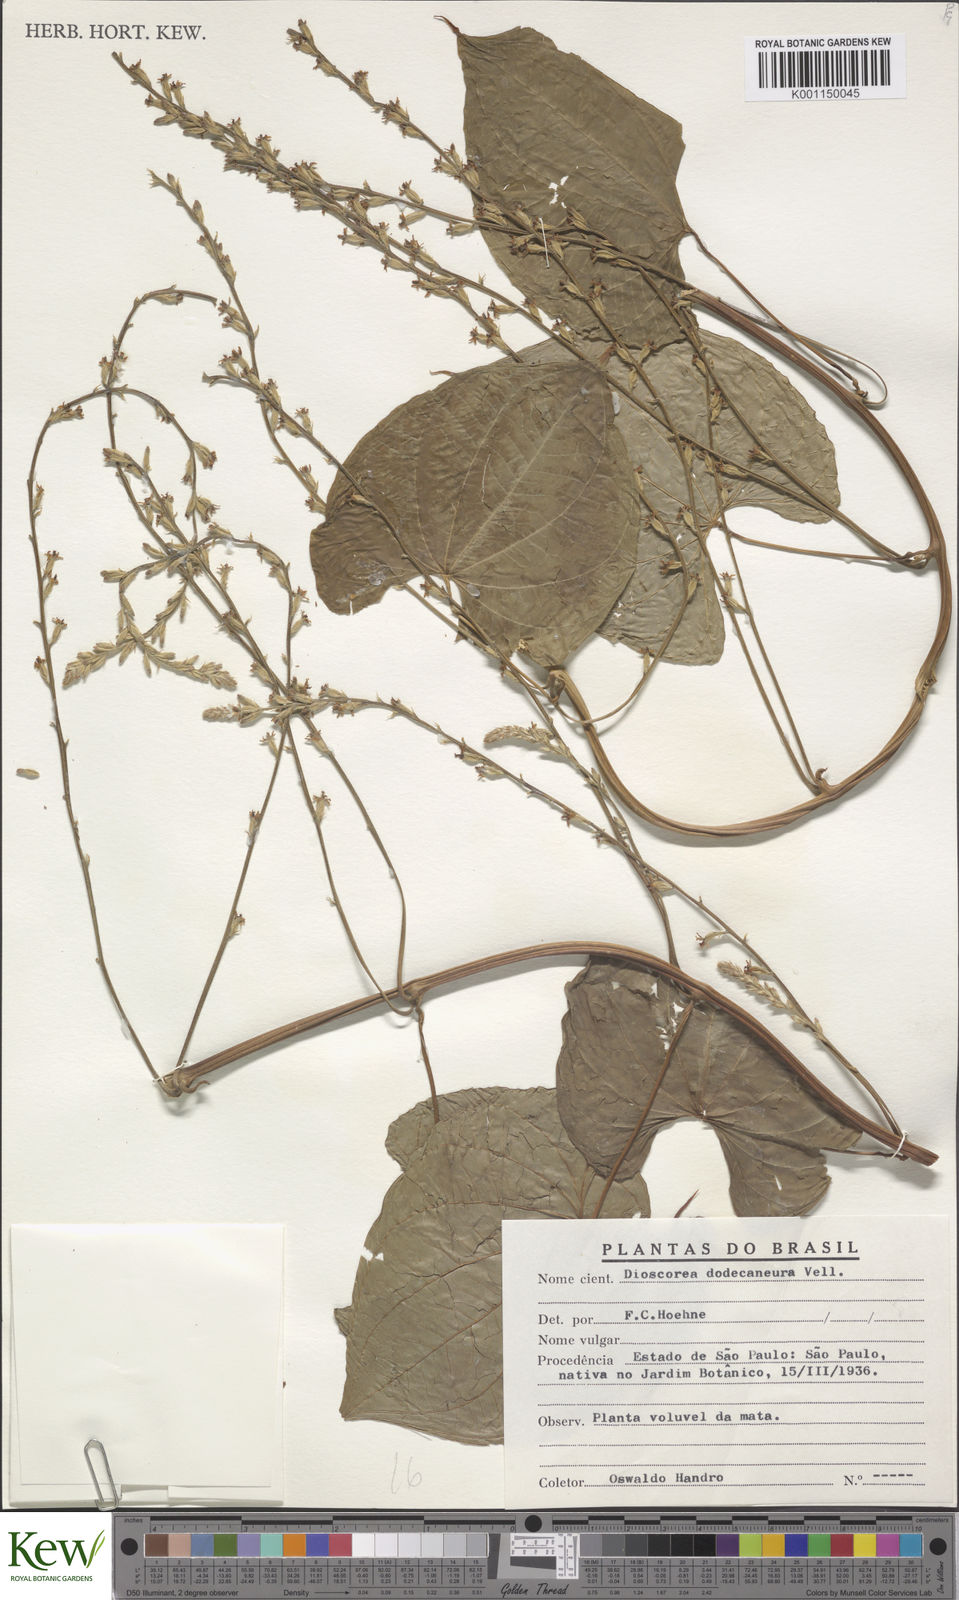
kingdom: Plantae
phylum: Tracheophyta
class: Liliopsida
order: Dioscoreales
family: Dioscoreaceae
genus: Dioscorea
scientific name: Dioscorea dodecaneura
